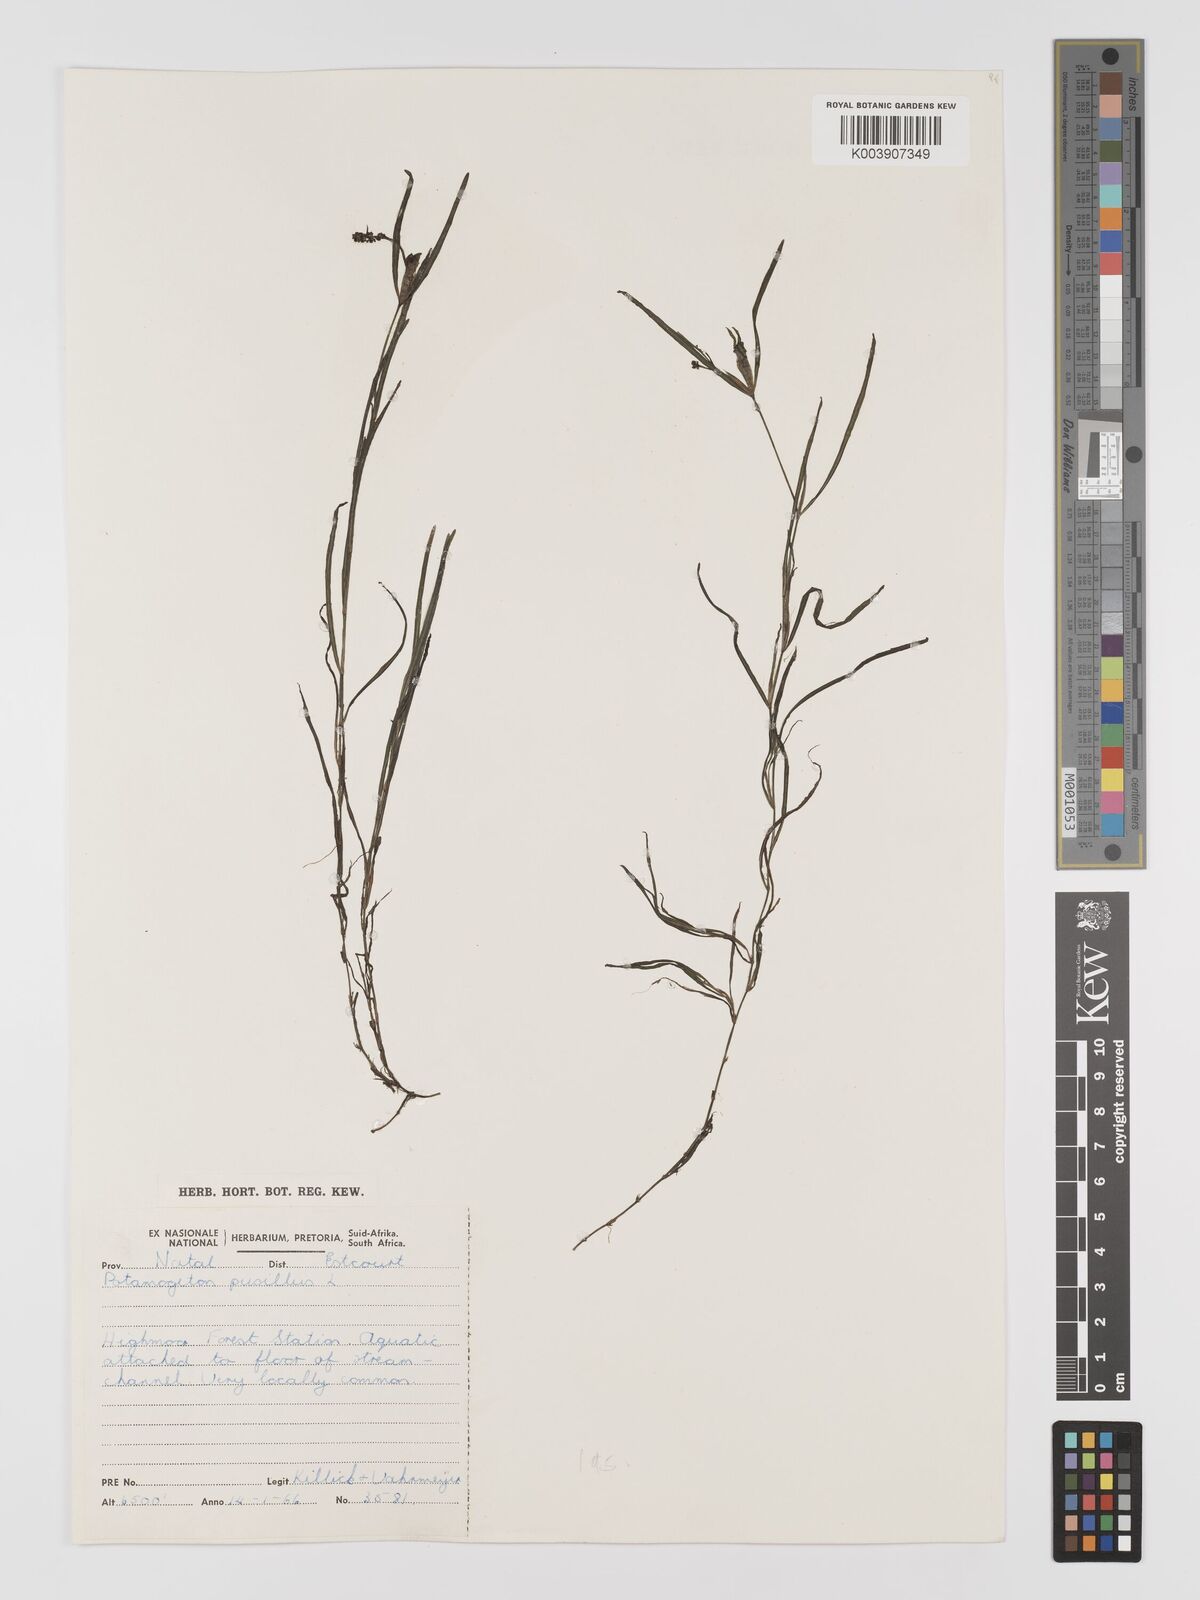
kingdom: Plantae
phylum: Tracheophyta
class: Liliopsida
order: Alismatales
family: Potamogetonaceae
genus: Potamogeton
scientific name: Potamogeton pusillus
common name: Lesser pondweed
